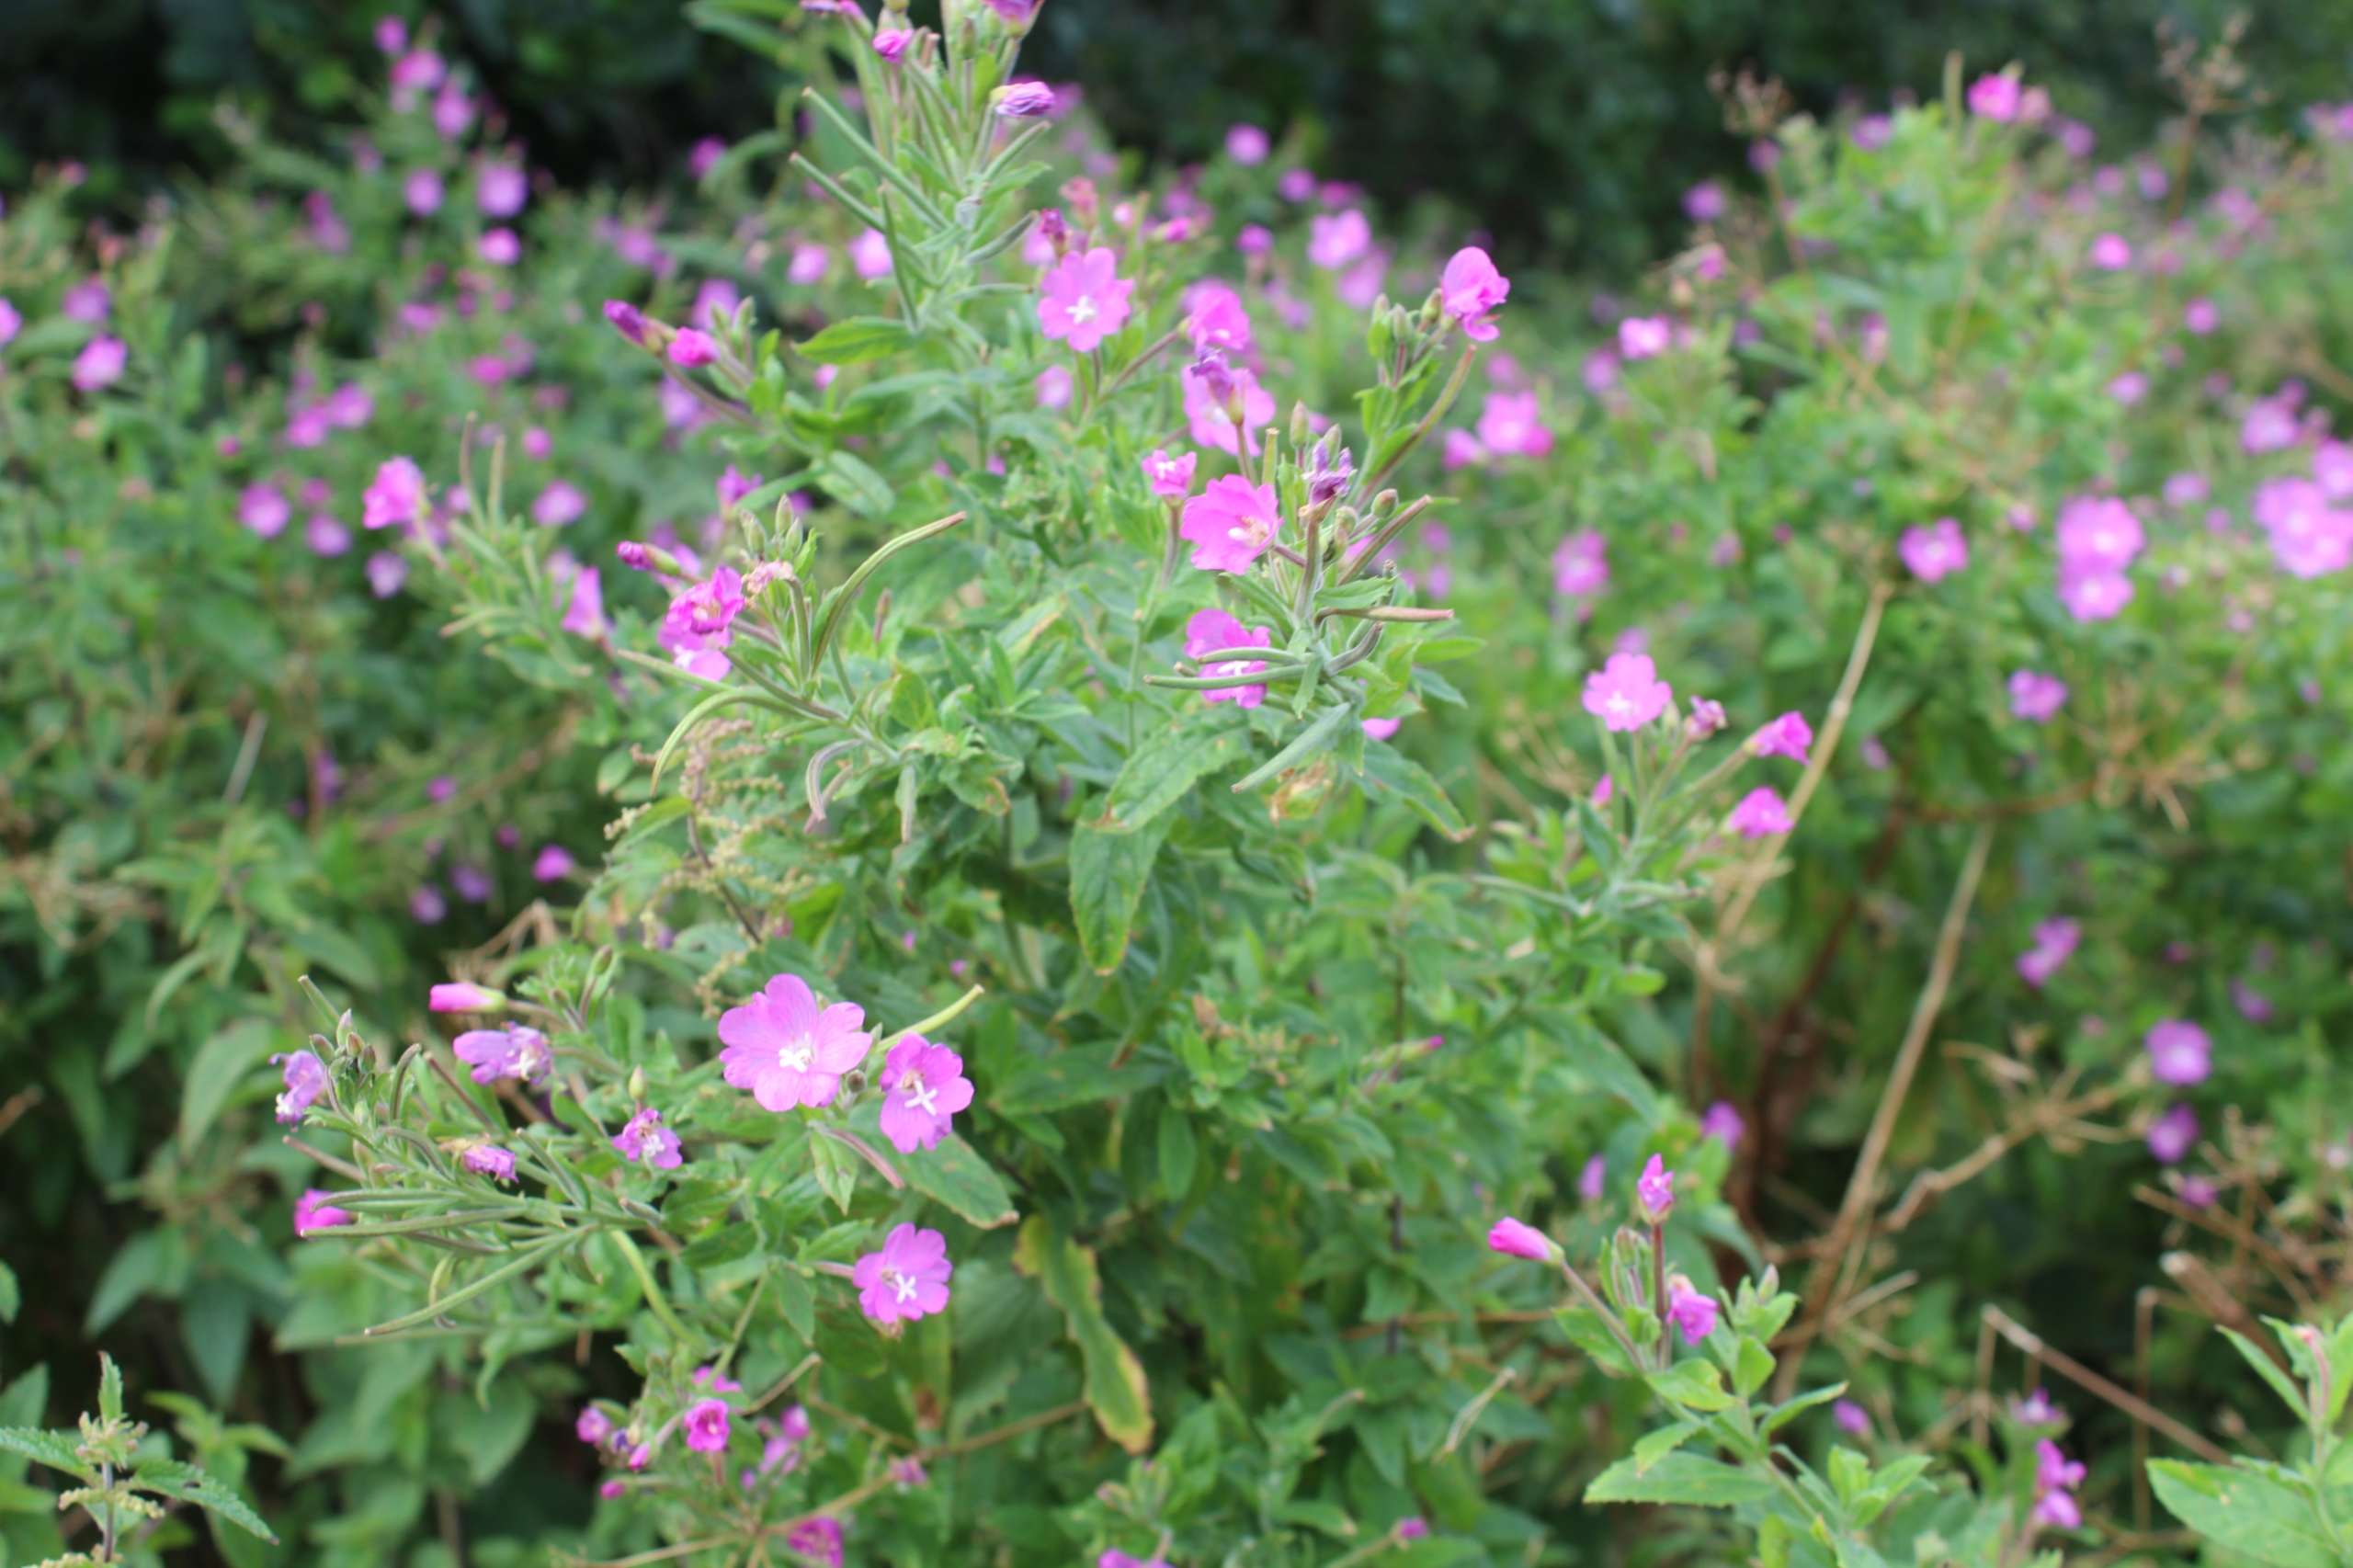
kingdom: Plantae
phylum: Tracheophyta
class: Magnoliopsida
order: Myrtales
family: Onagraceae
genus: Epilobium
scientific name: Epilobium hirsutum
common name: Lådden dueurt
